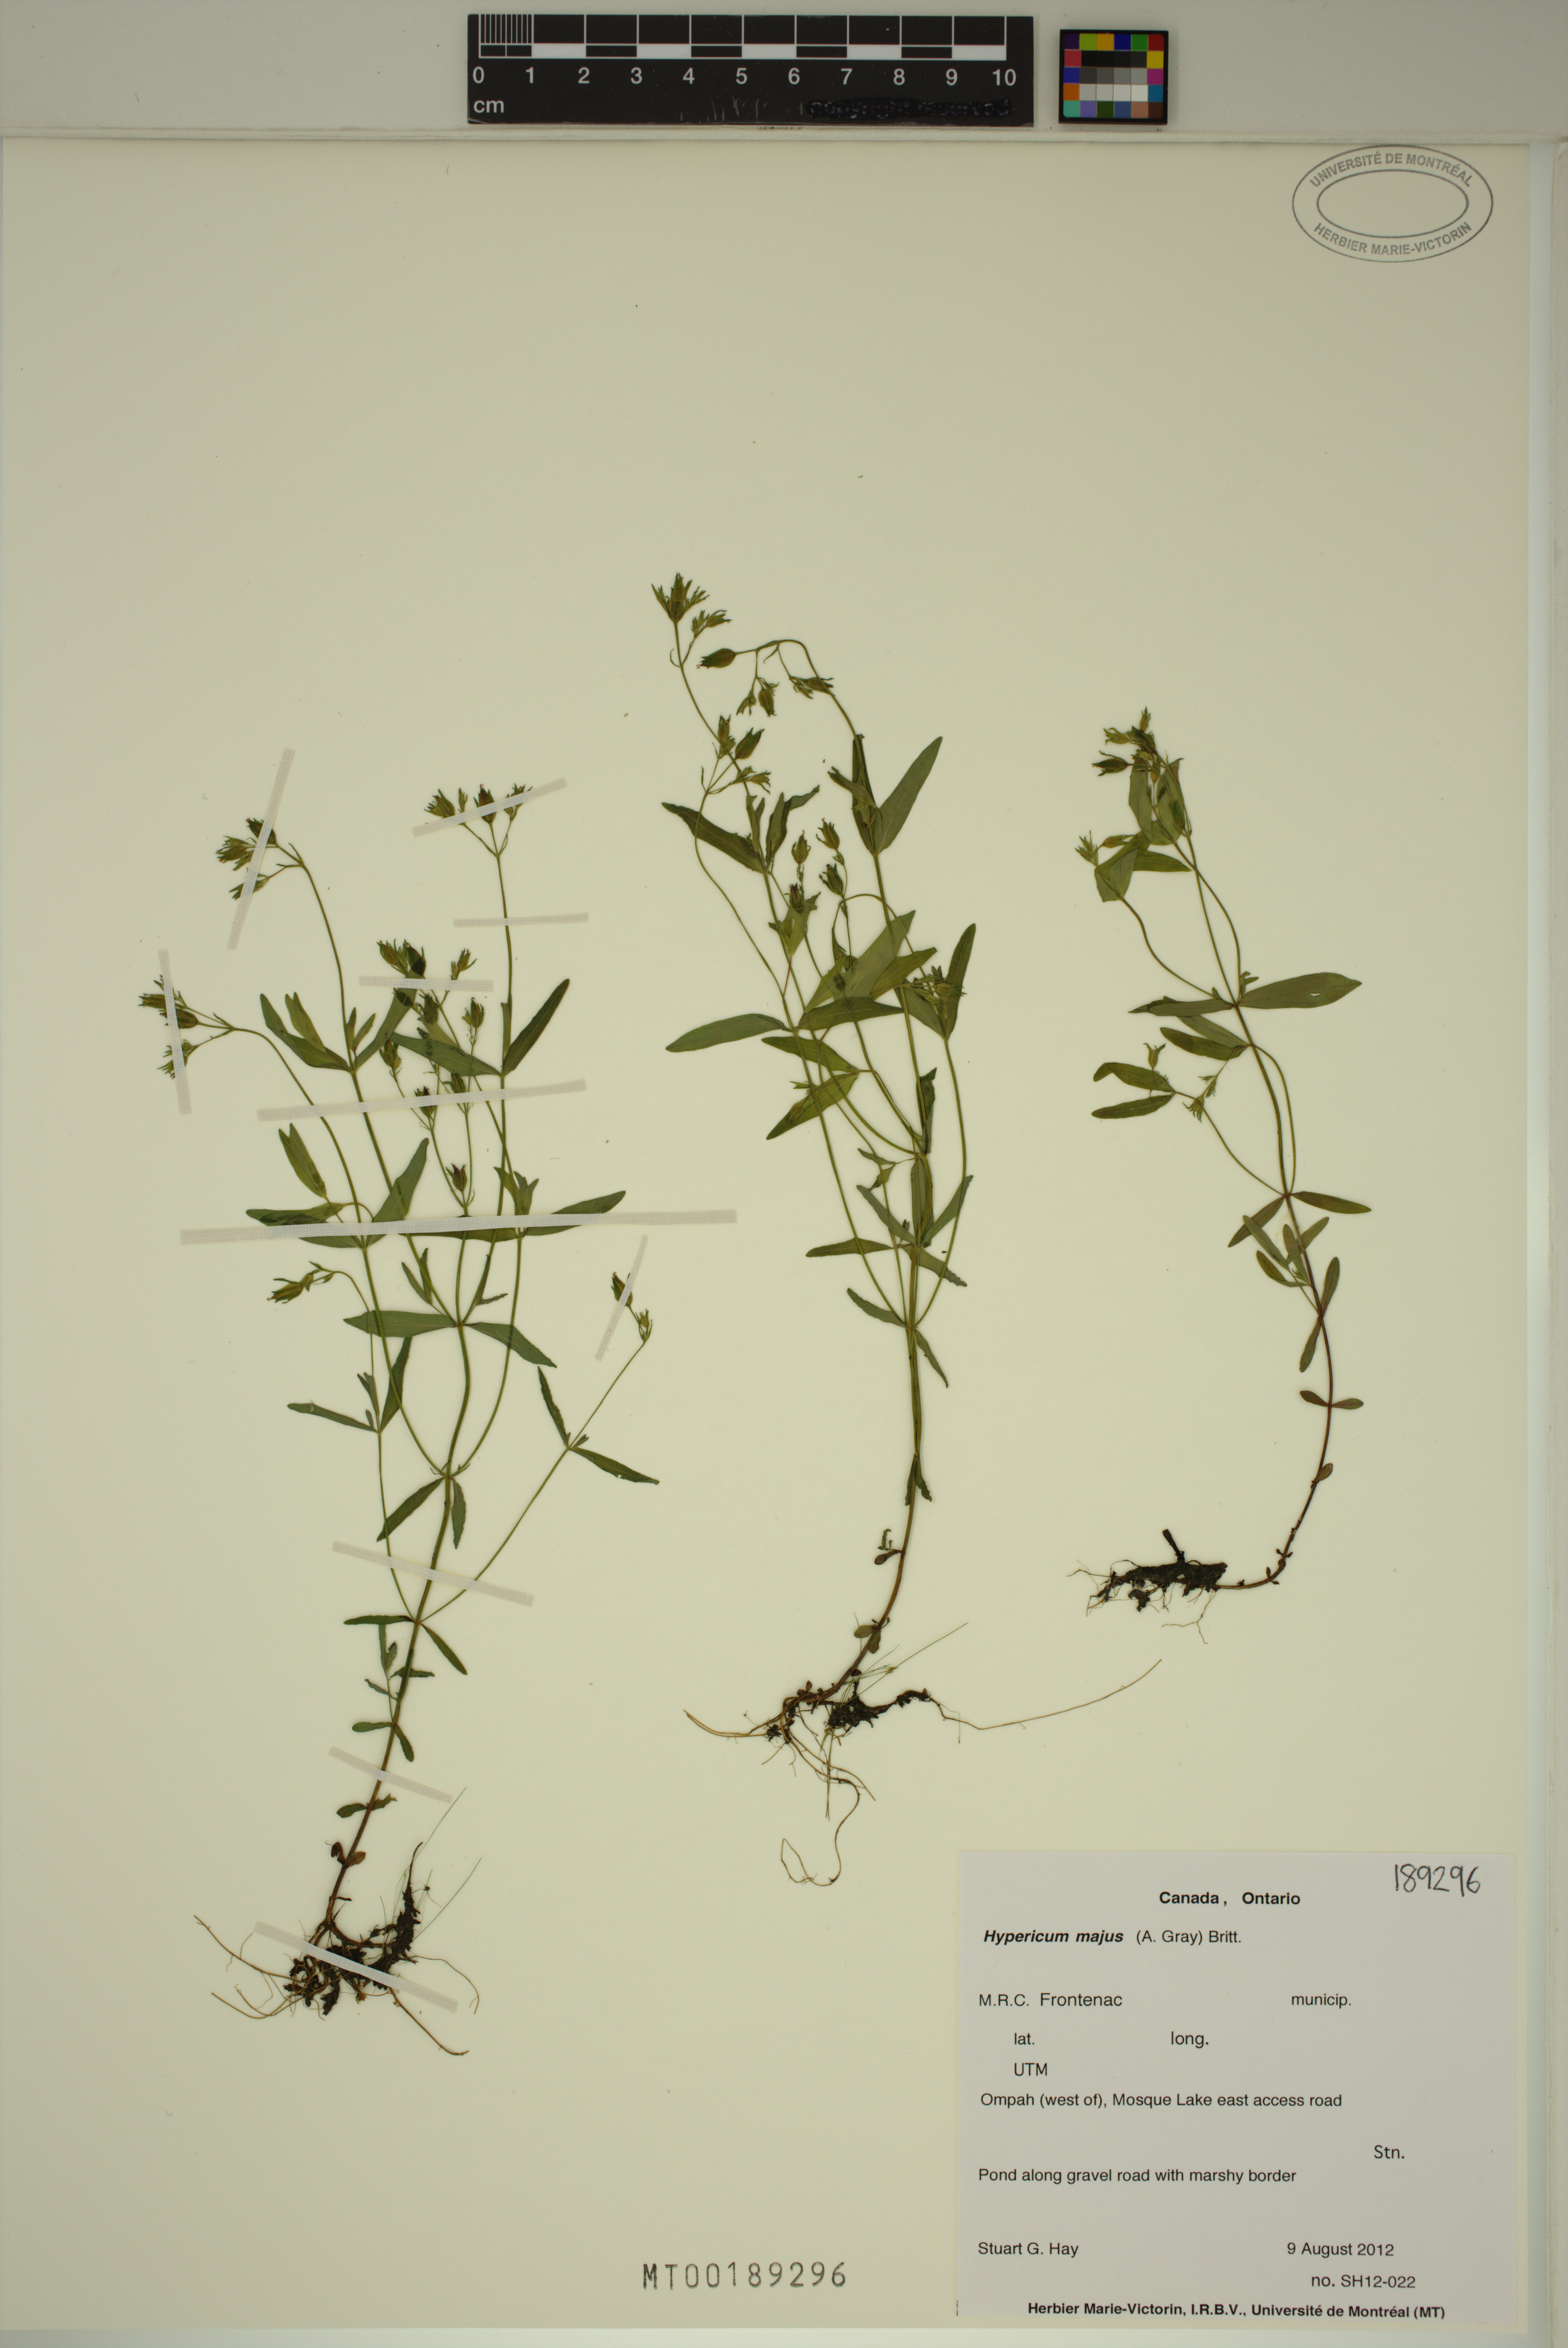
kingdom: Plantae
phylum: Tracheophyta
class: Magnoliopsida
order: Malpighiales
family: Hypericaceae
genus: Hypericum
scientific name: Hypericum majus
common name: Greater canadian st. john's-wort
